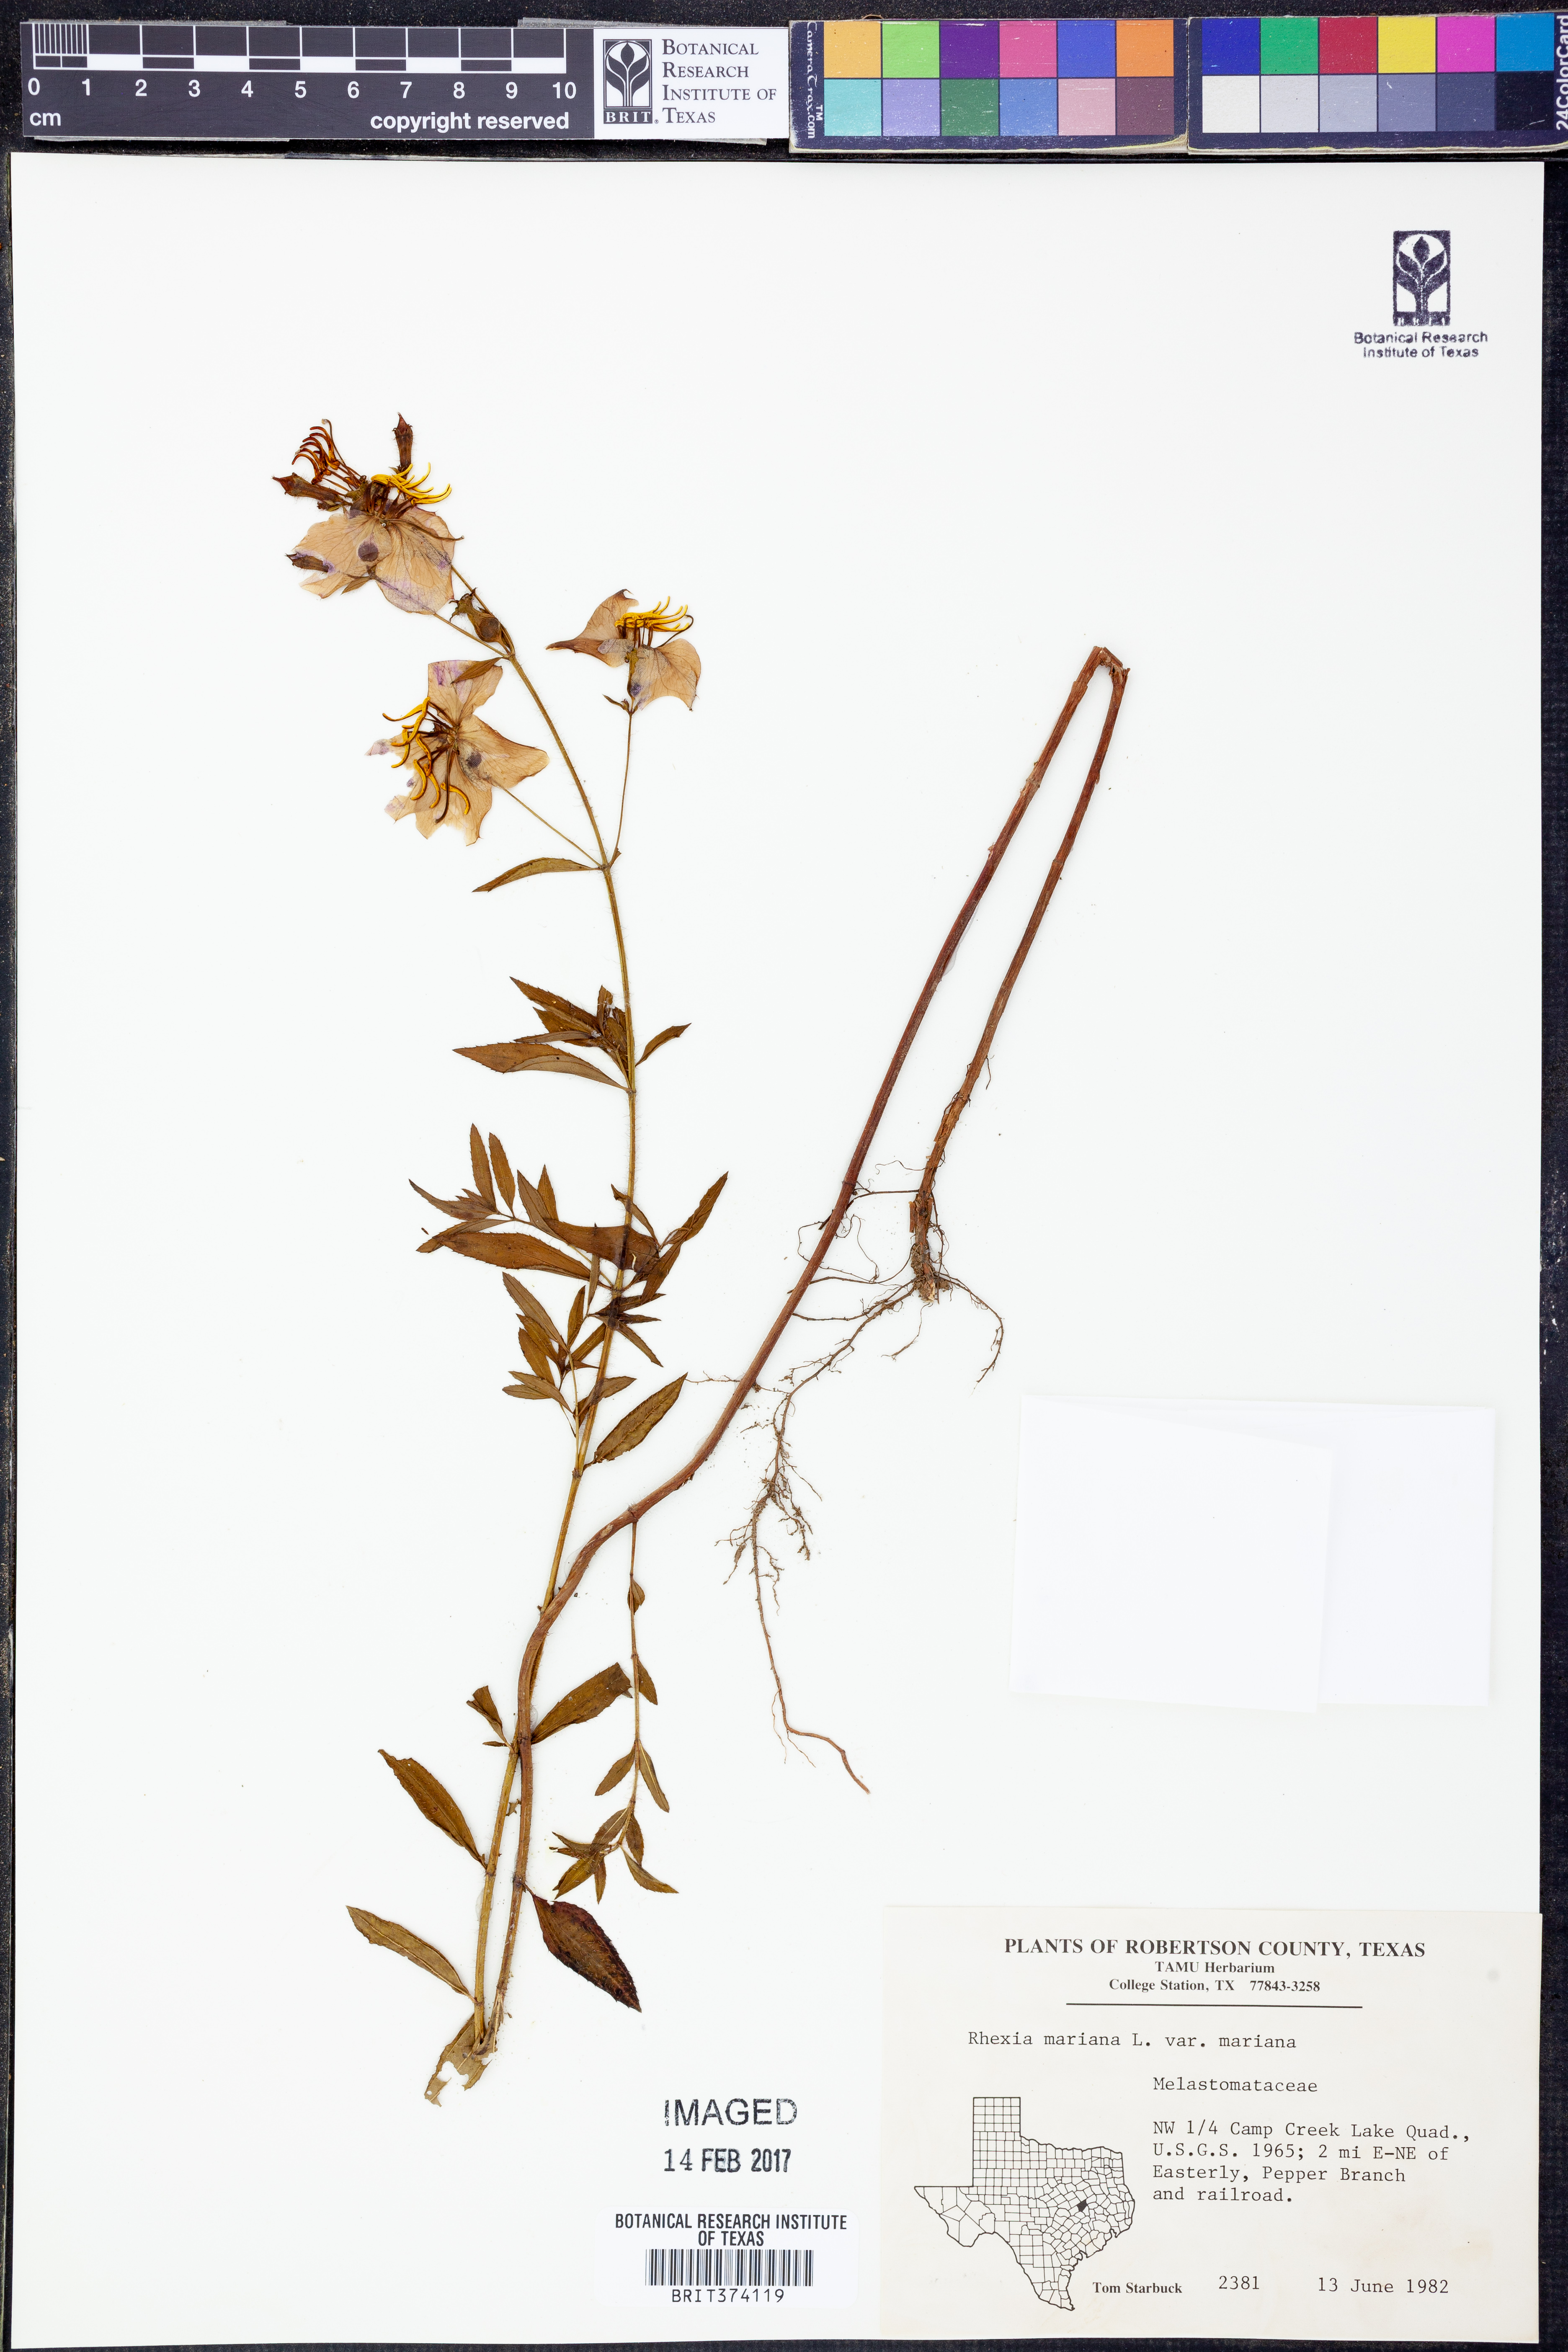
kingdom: Plantae
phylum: Tracheophyta
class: Magnoliopsida
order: Myrtales
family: Melastomataceae
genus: Rhexia
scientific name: Rhexia mariana
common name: Dull meadow-pitcher
